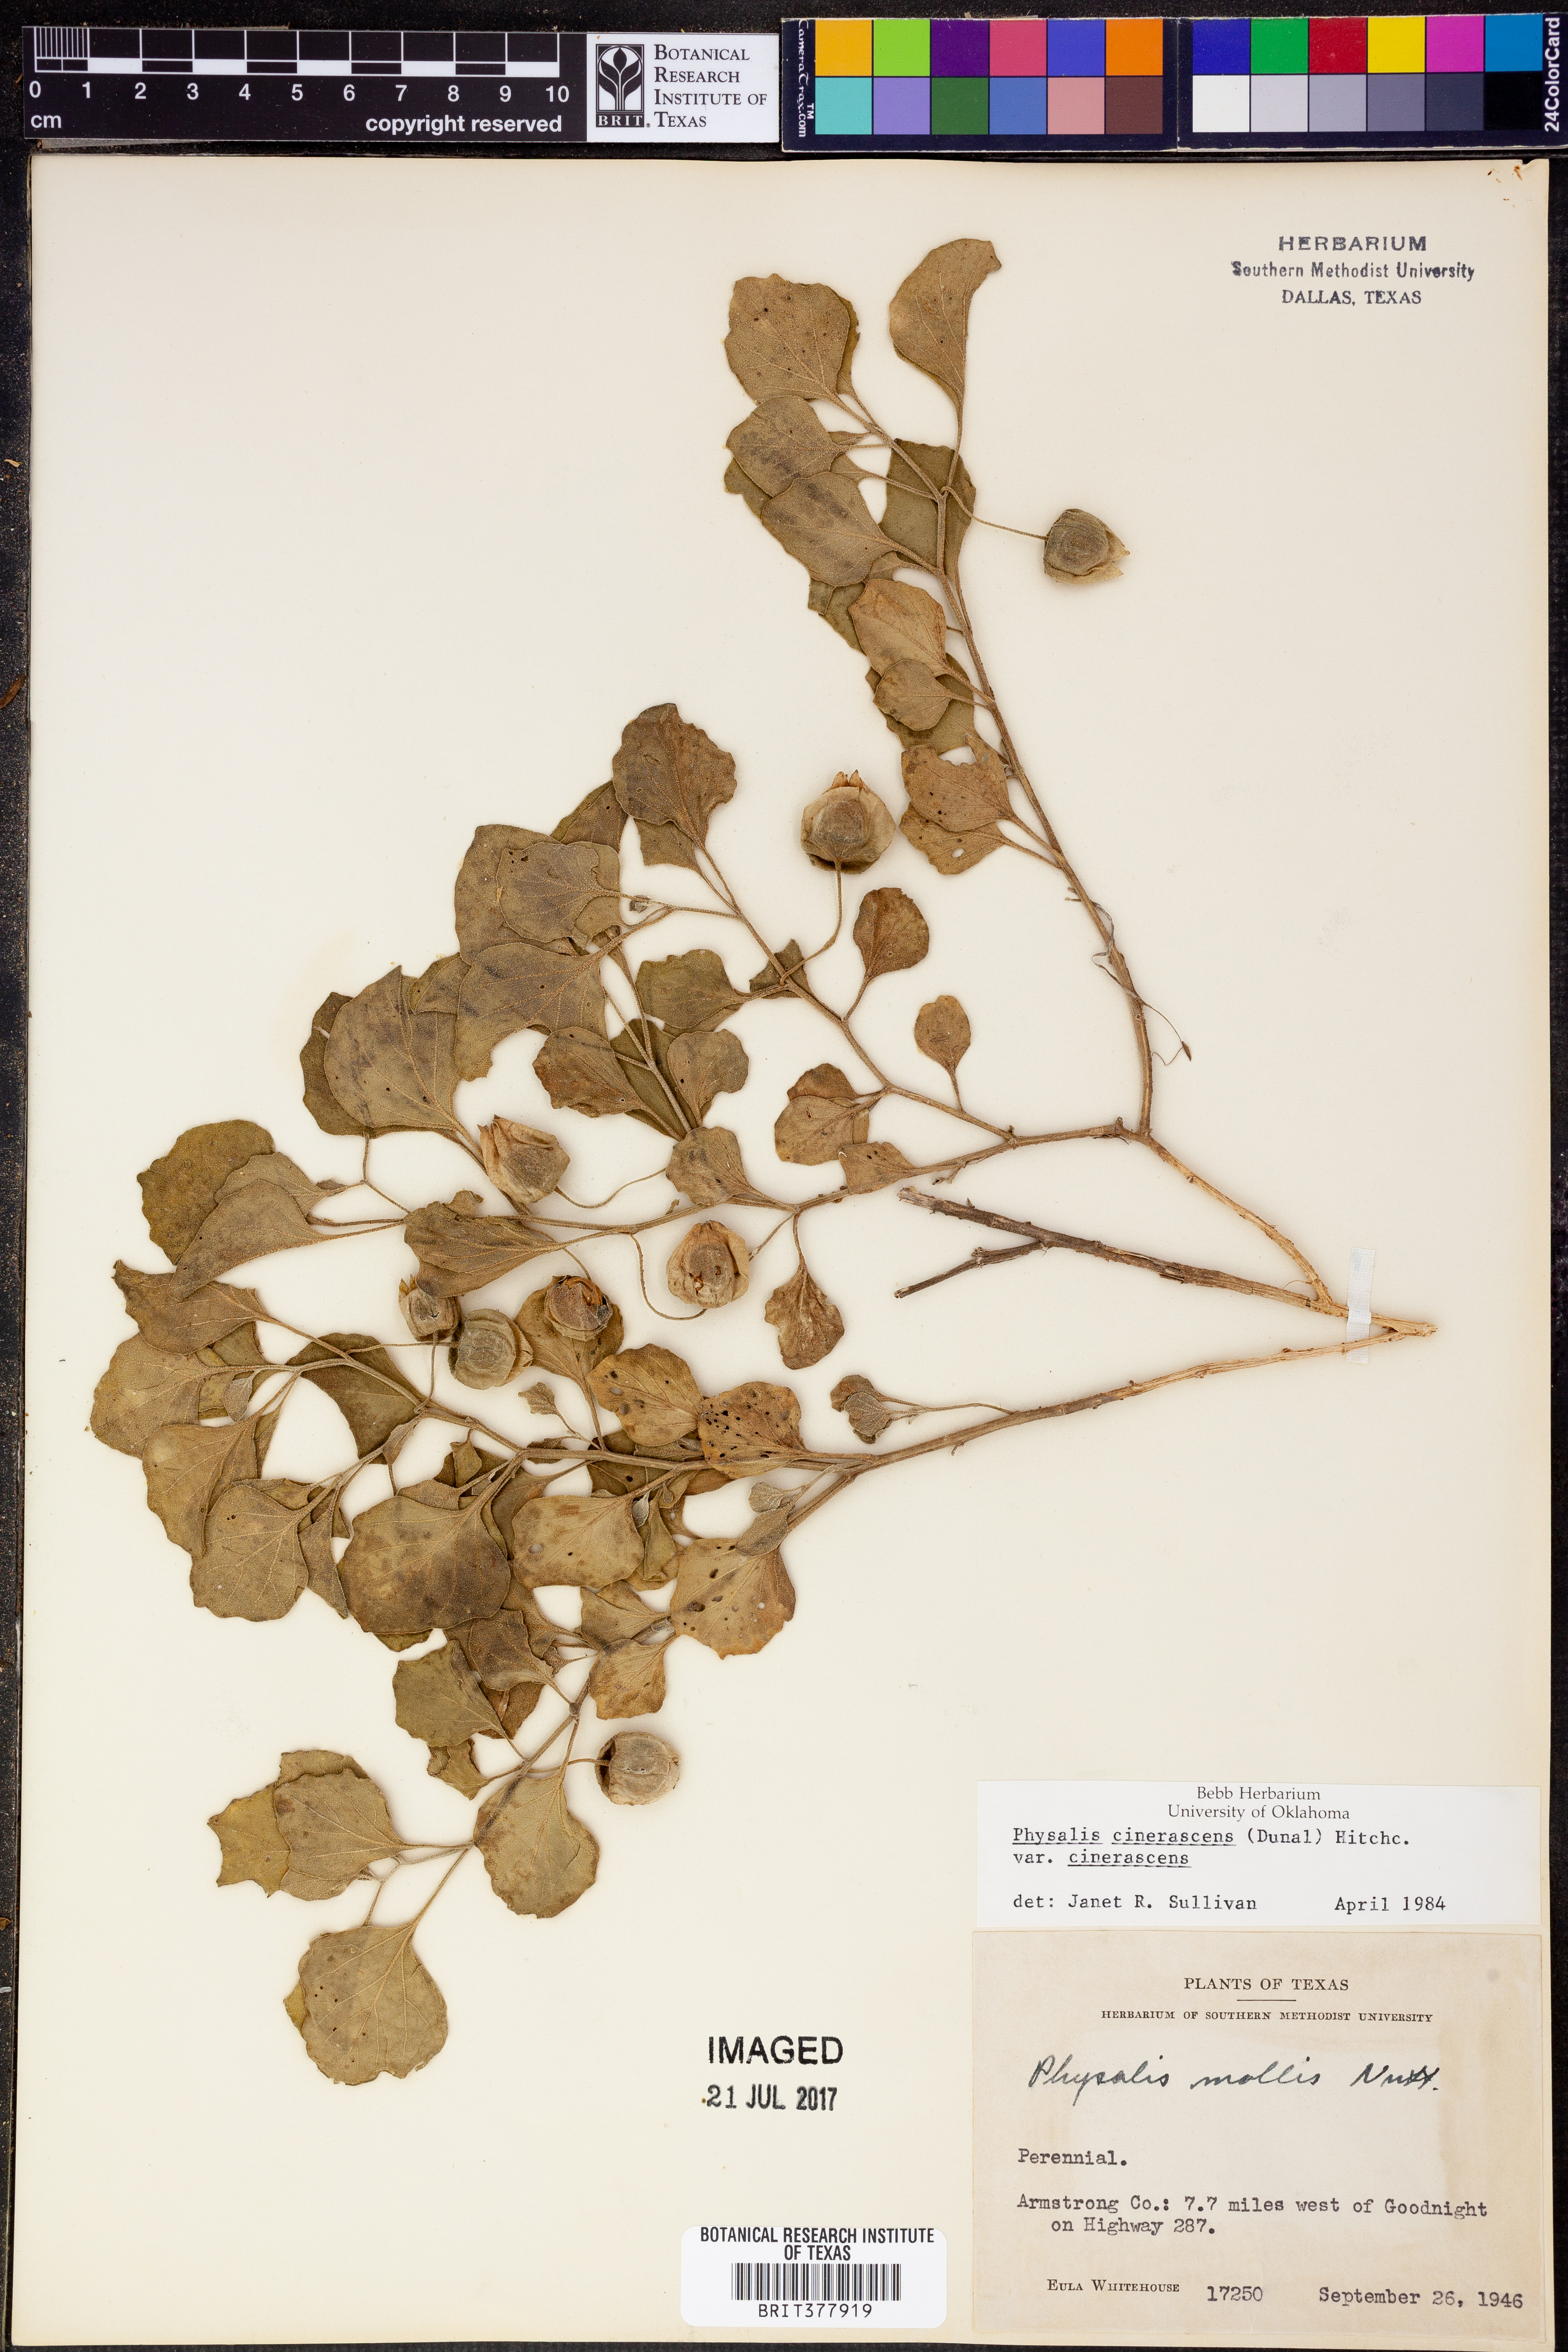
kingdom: Plantae
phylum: Tracheophyta
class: Magnoliopsida
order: Solanales
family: Solanaceae
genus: Physalis
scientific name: Physalis cinerascens
